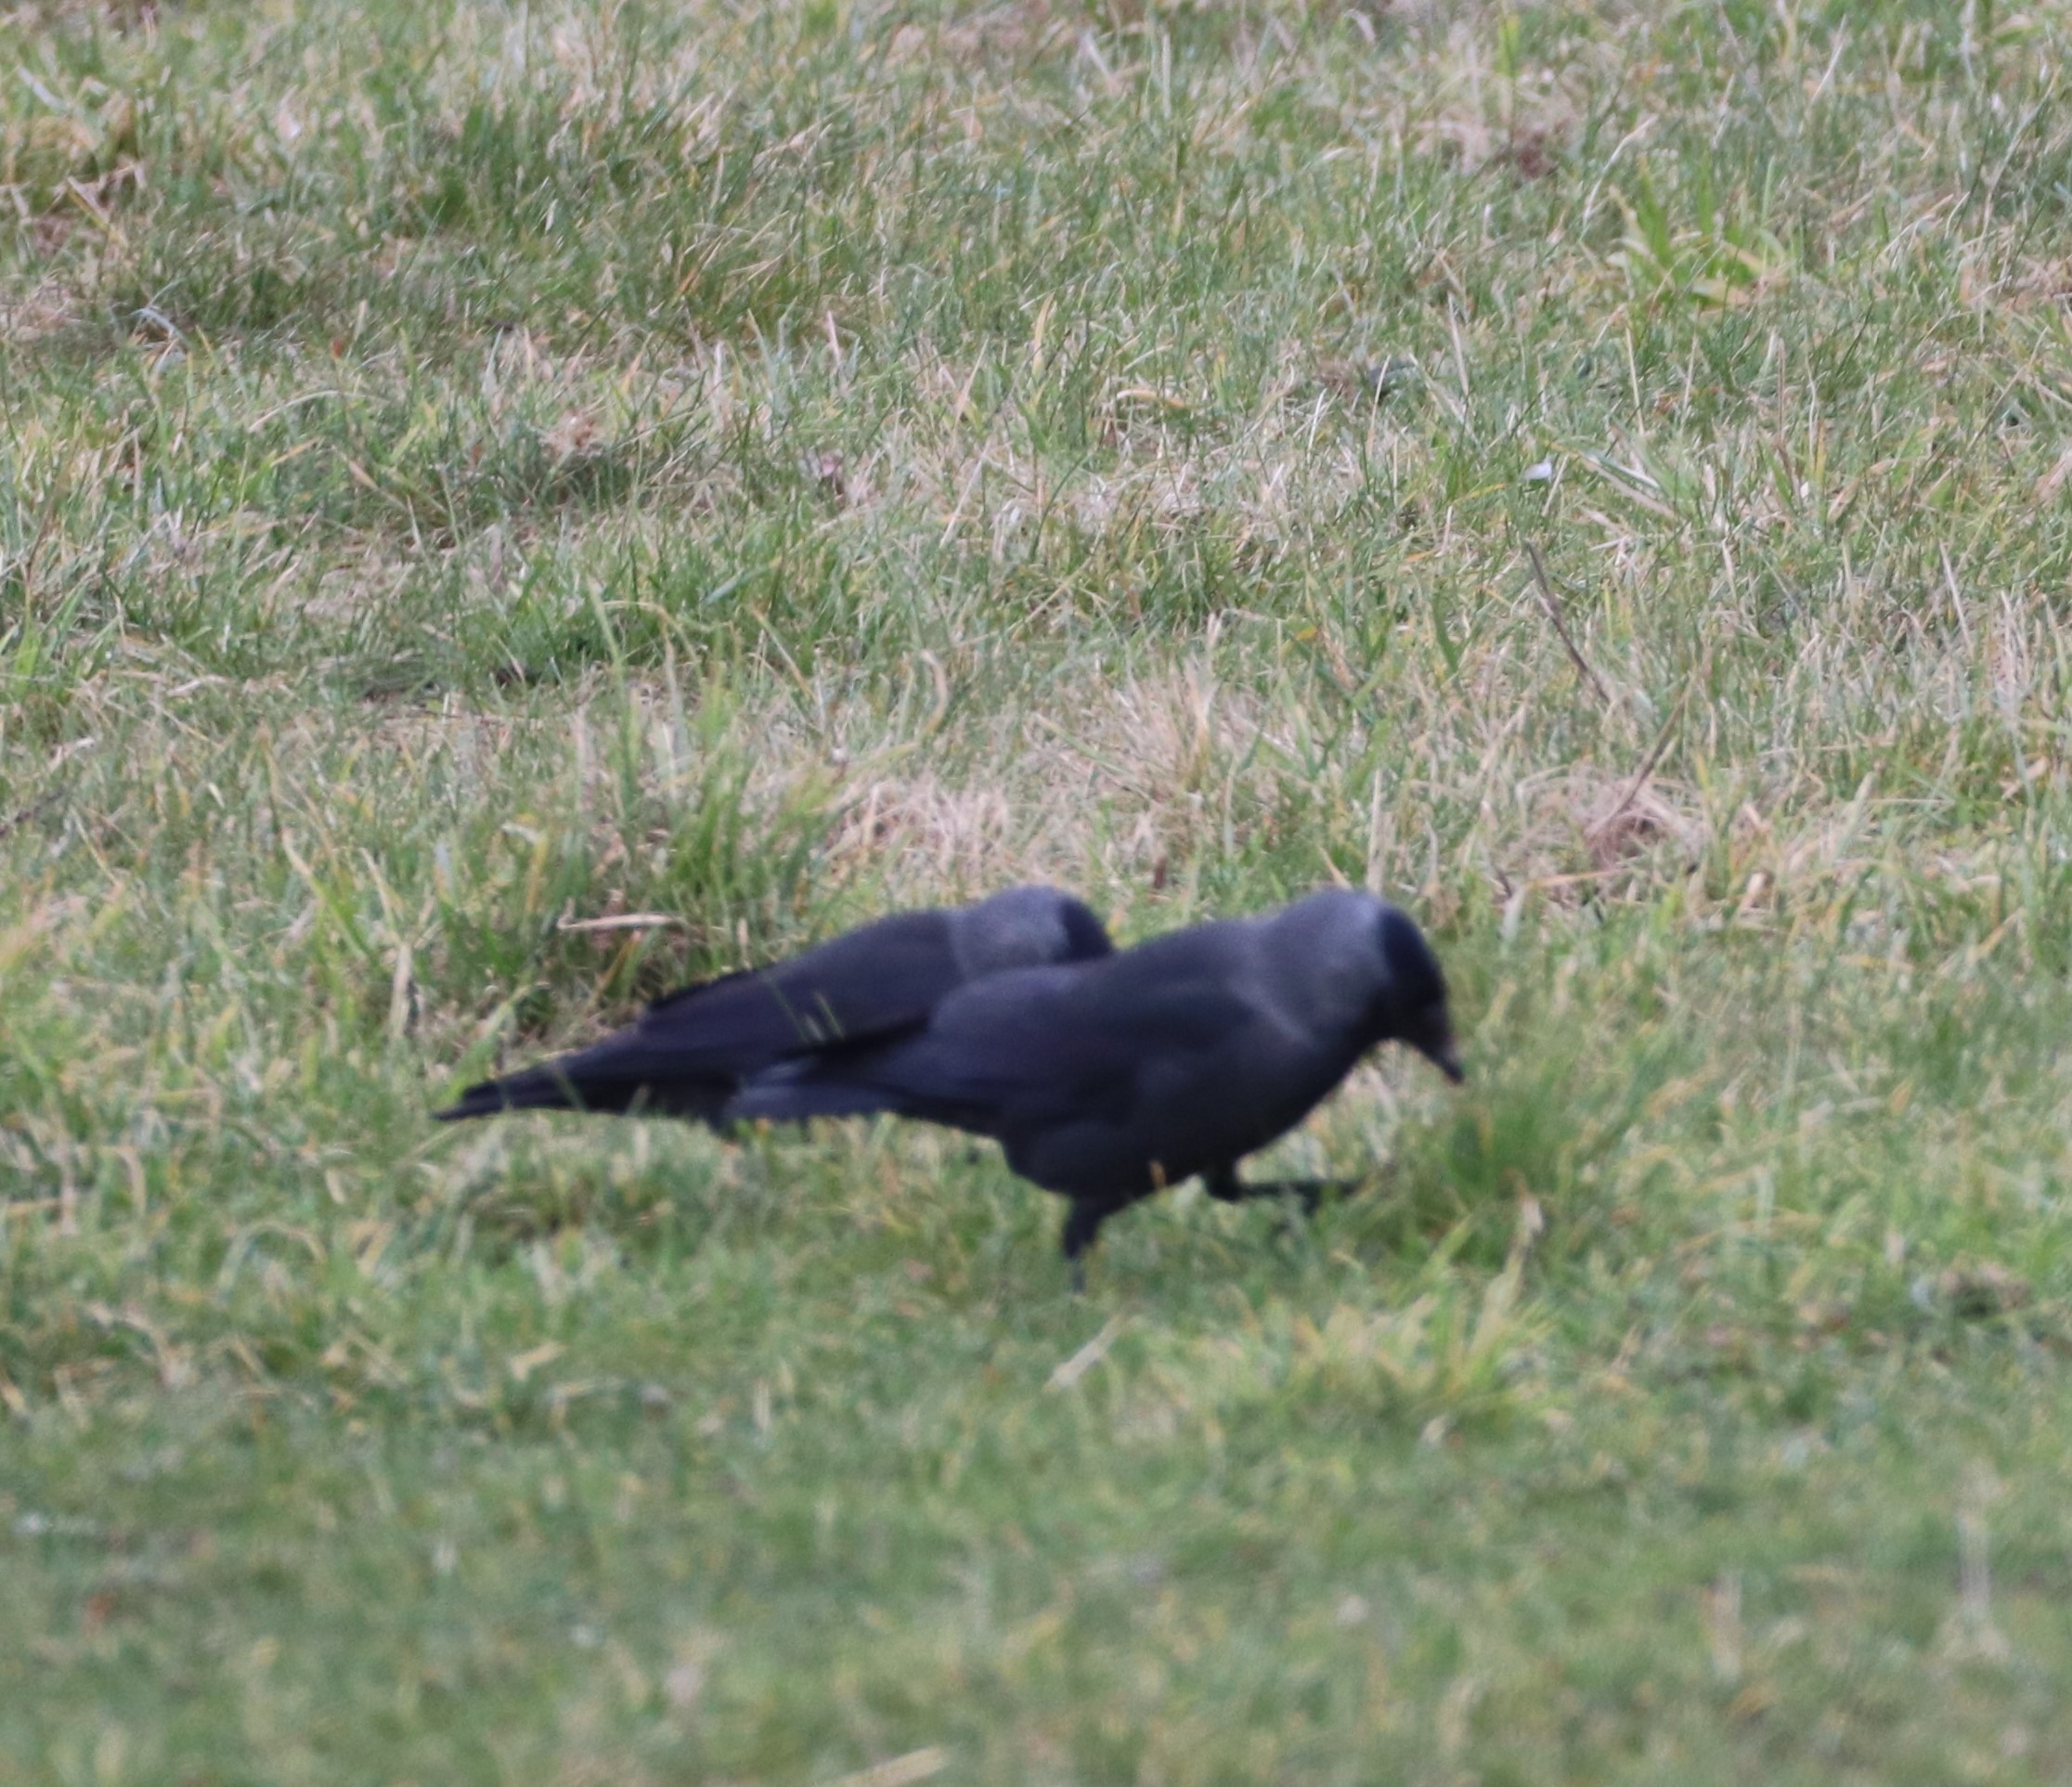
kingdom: Animalia
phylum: Chordata
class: Aves
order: Passeriformes
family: Corvidae
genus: Coloeus
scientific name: Coloeus monedula
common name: Allike
